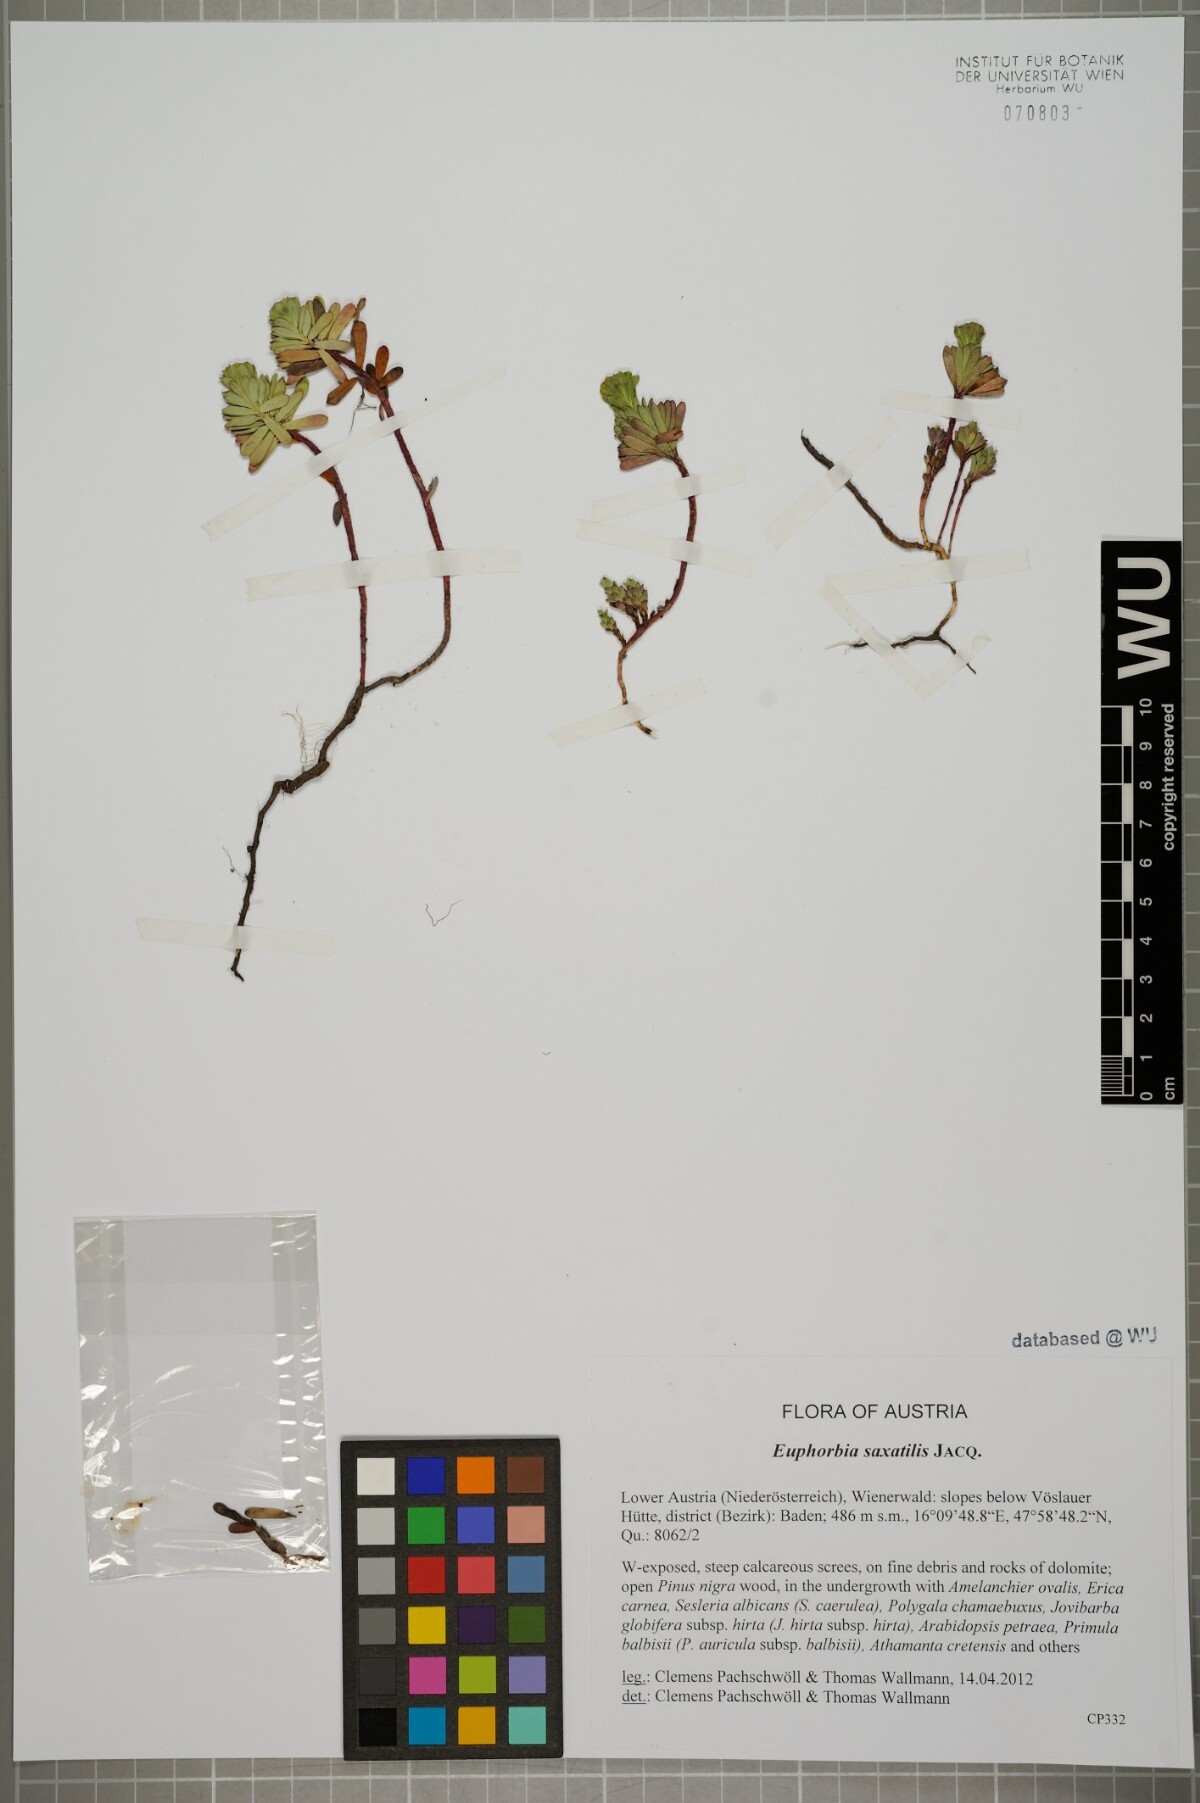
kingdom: Plantae
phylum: Tracheophyta
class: Magnoliopsida
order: Malpighiales
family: Euphorbiaceae
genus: Euphorbia
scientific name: Euphorbia saxatilis
